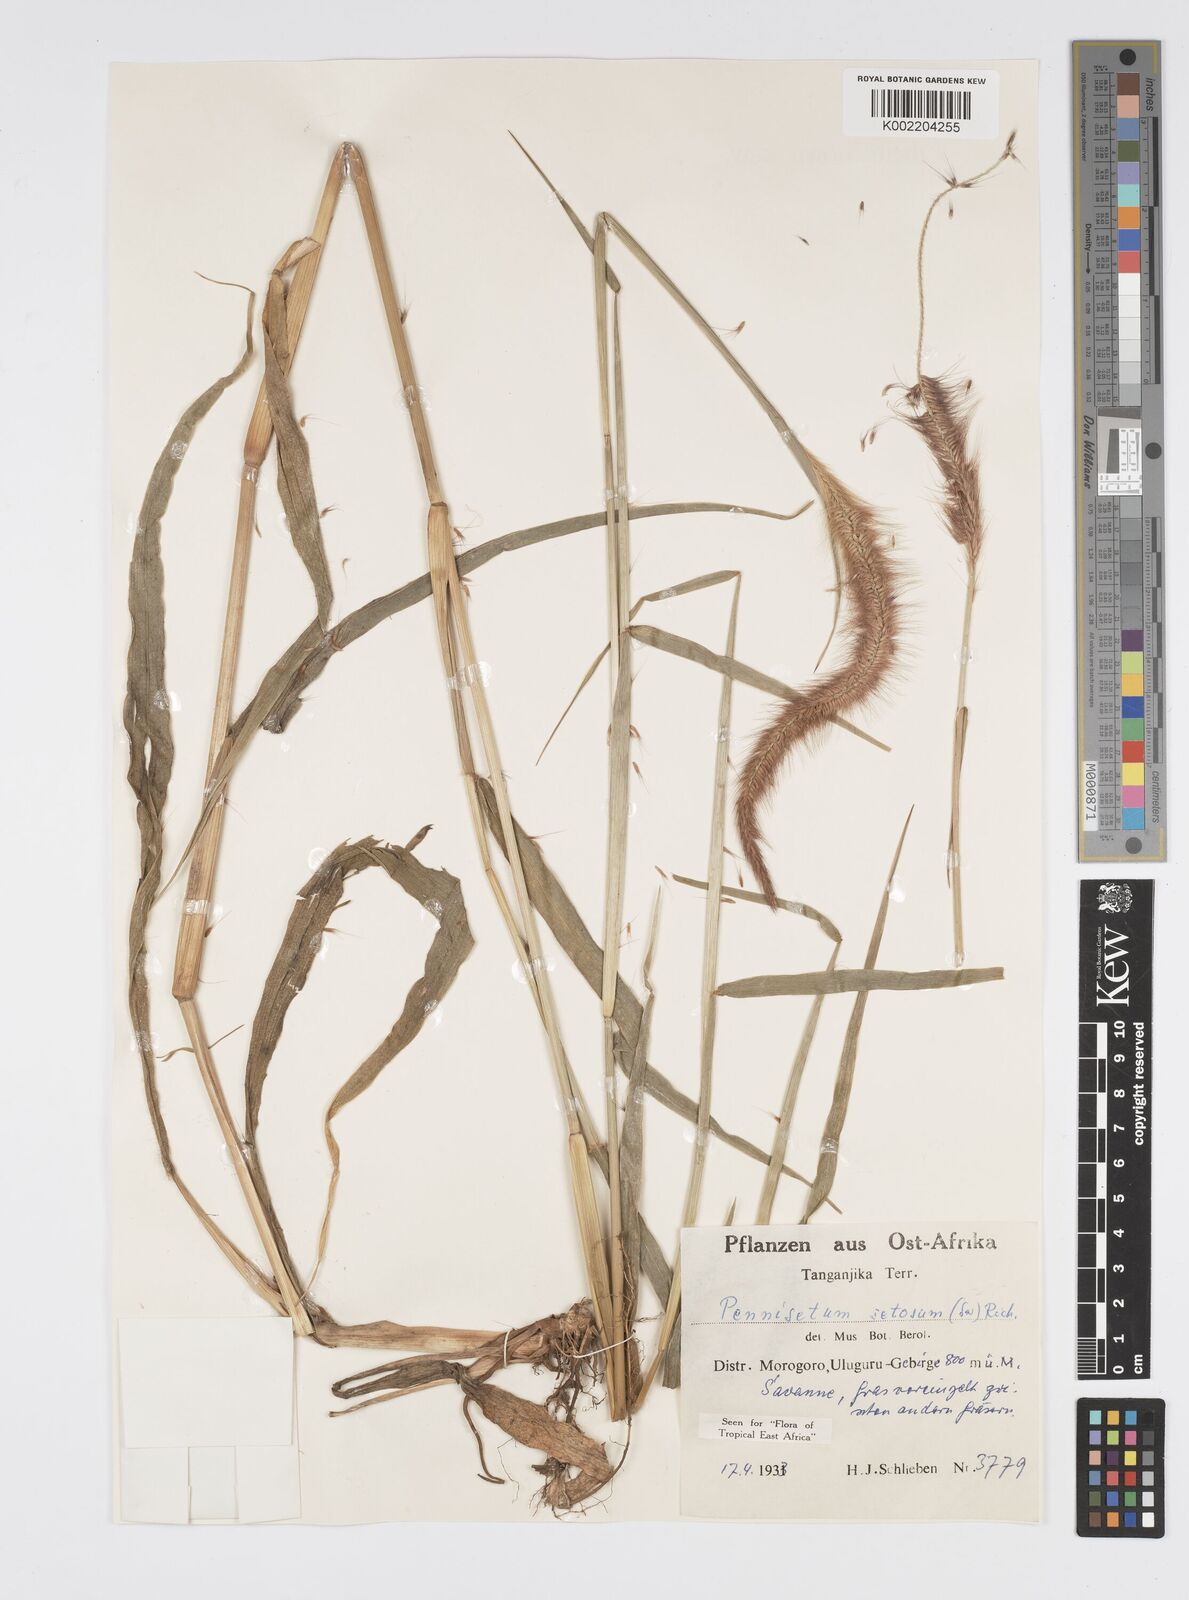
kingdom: Plantae
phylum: Tracheophyta
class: Liliopsida
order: Poales
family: Poaceae
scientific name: Poaceae
